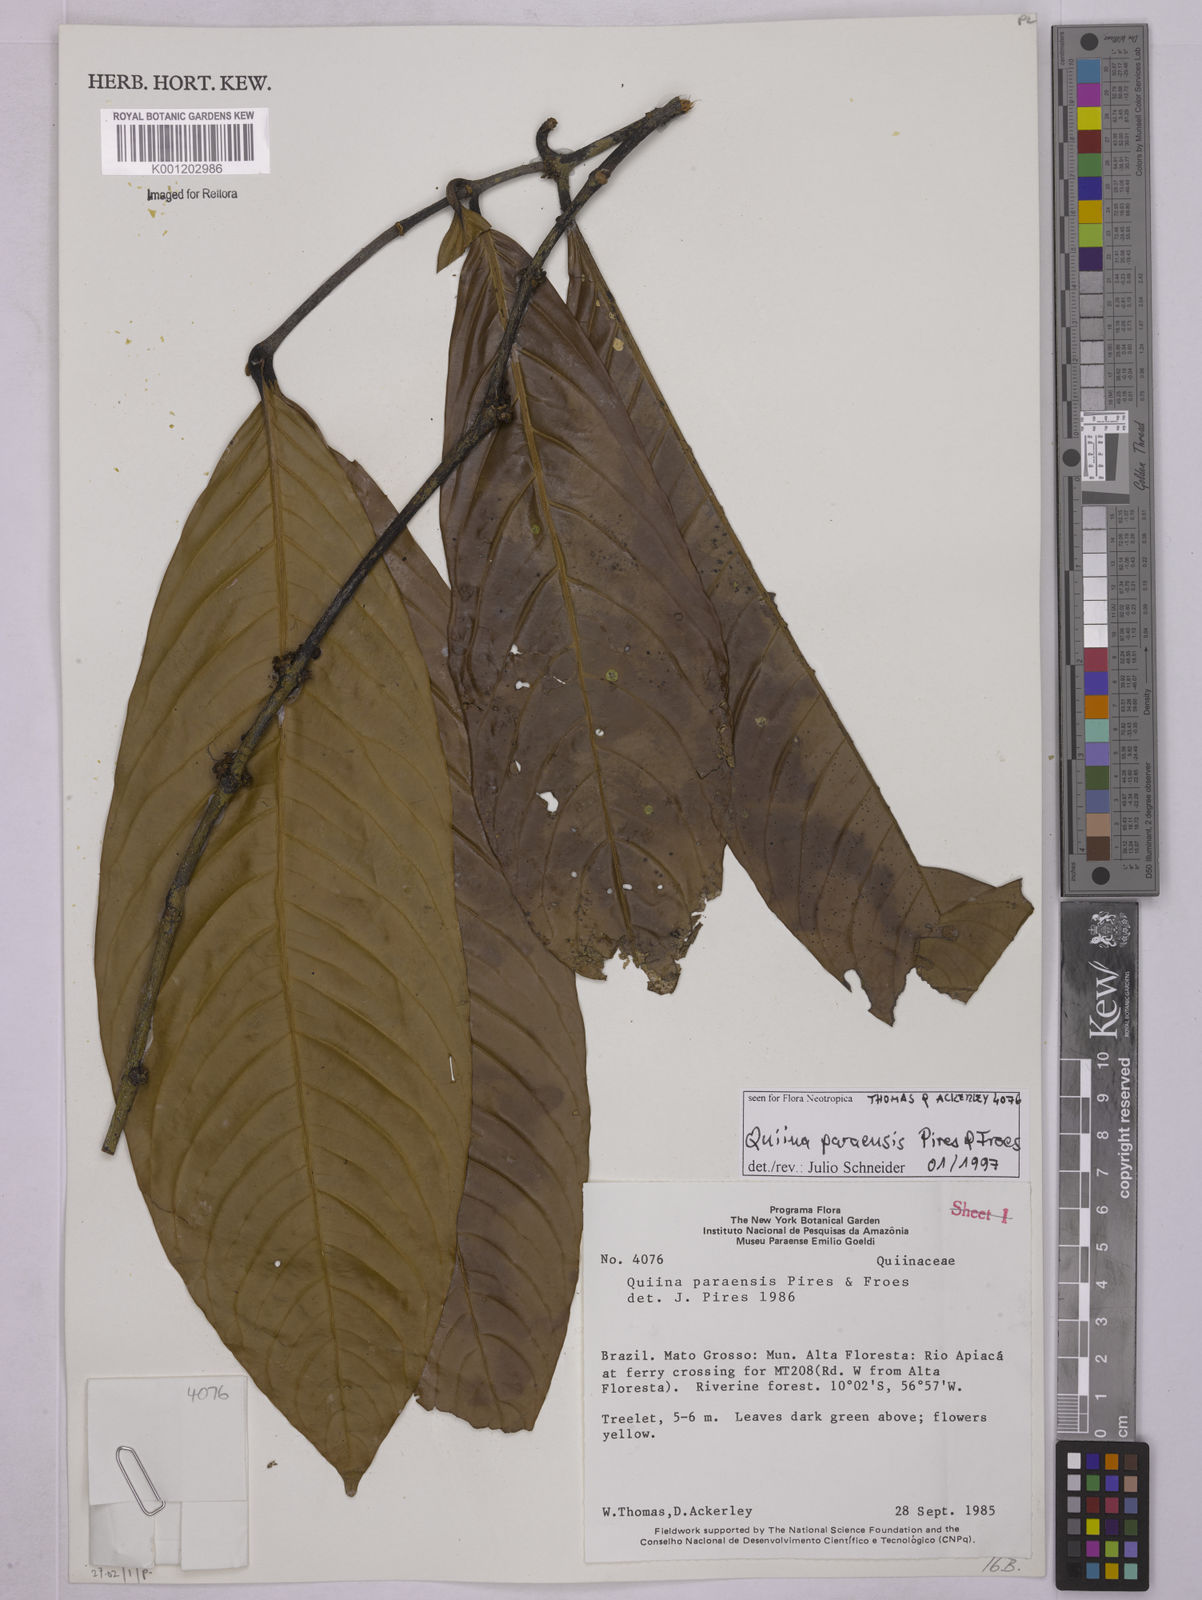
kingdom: Plantae
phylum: Tracheophyta
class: Magnoliopsida
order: Malpighiales
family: Quiinaceae
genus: Quiina
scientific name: Quiina paraensis
